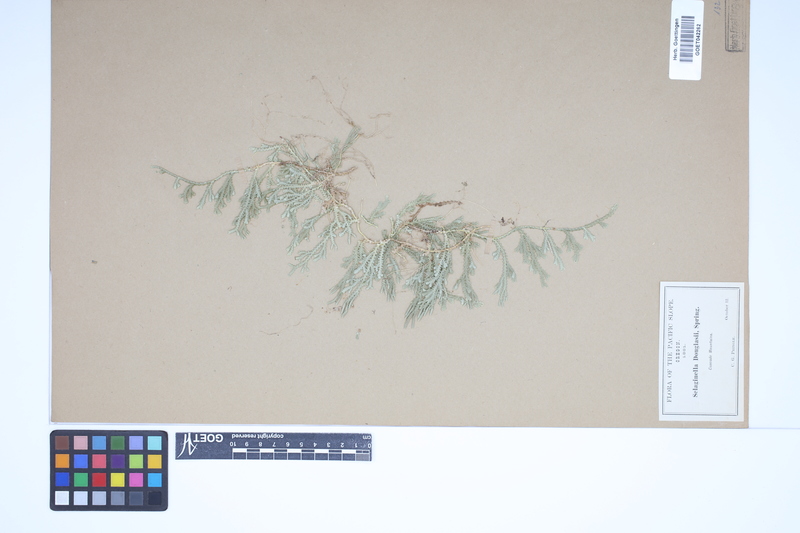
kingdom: Plantae
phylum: Tracheophyta
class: Lycopodiopsida
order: Selaginellales
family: Selaginellaceae
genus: Selaginella
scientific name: Selaginella douglasii
